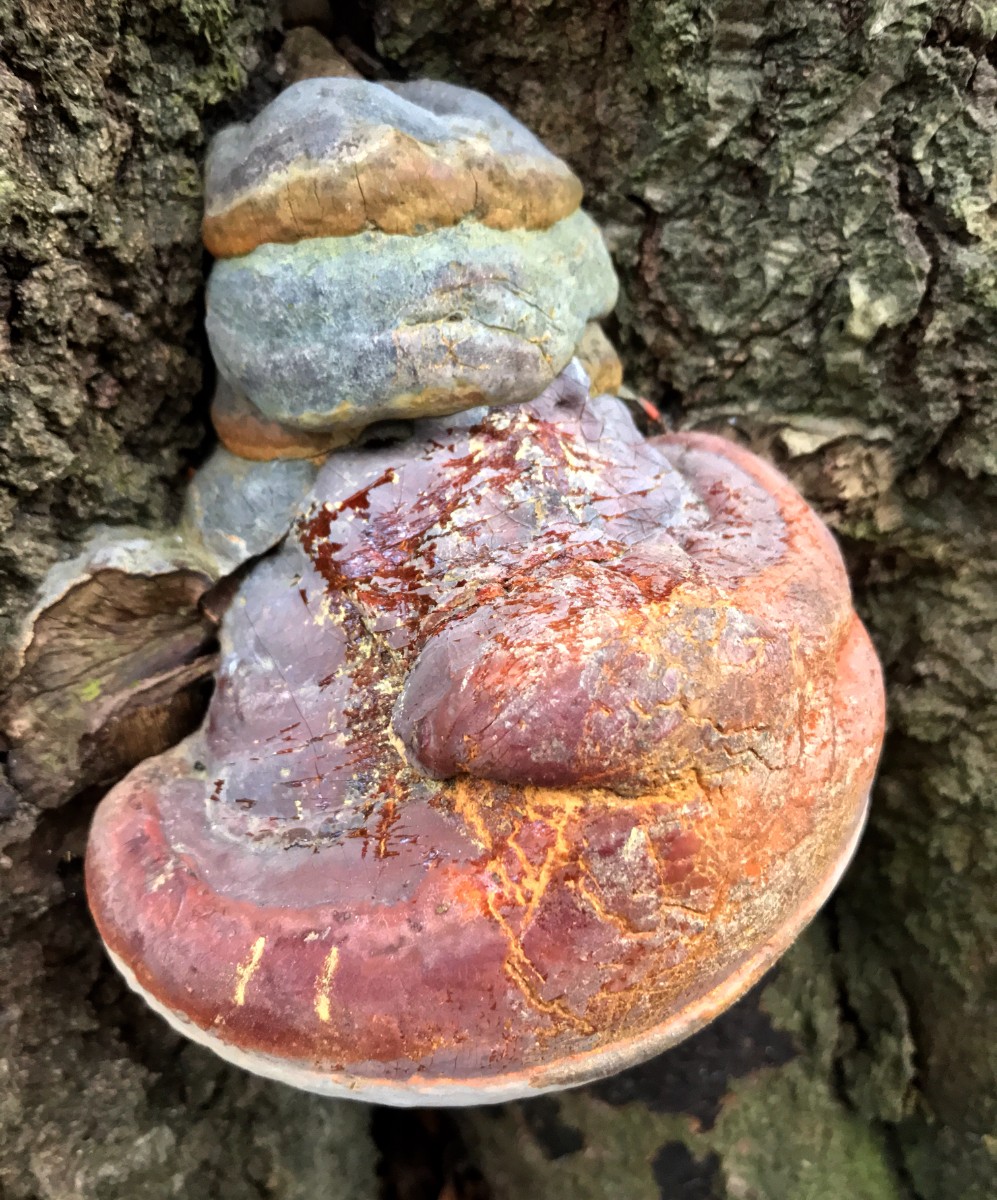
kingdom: Fungi
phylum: Basidiomycota
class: Agaricomycetes
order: Polyporales
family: Polyporaceae
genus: Ganoderma
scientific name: Ganoderma pfeifferi
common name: kobberrød lakporesvamp
